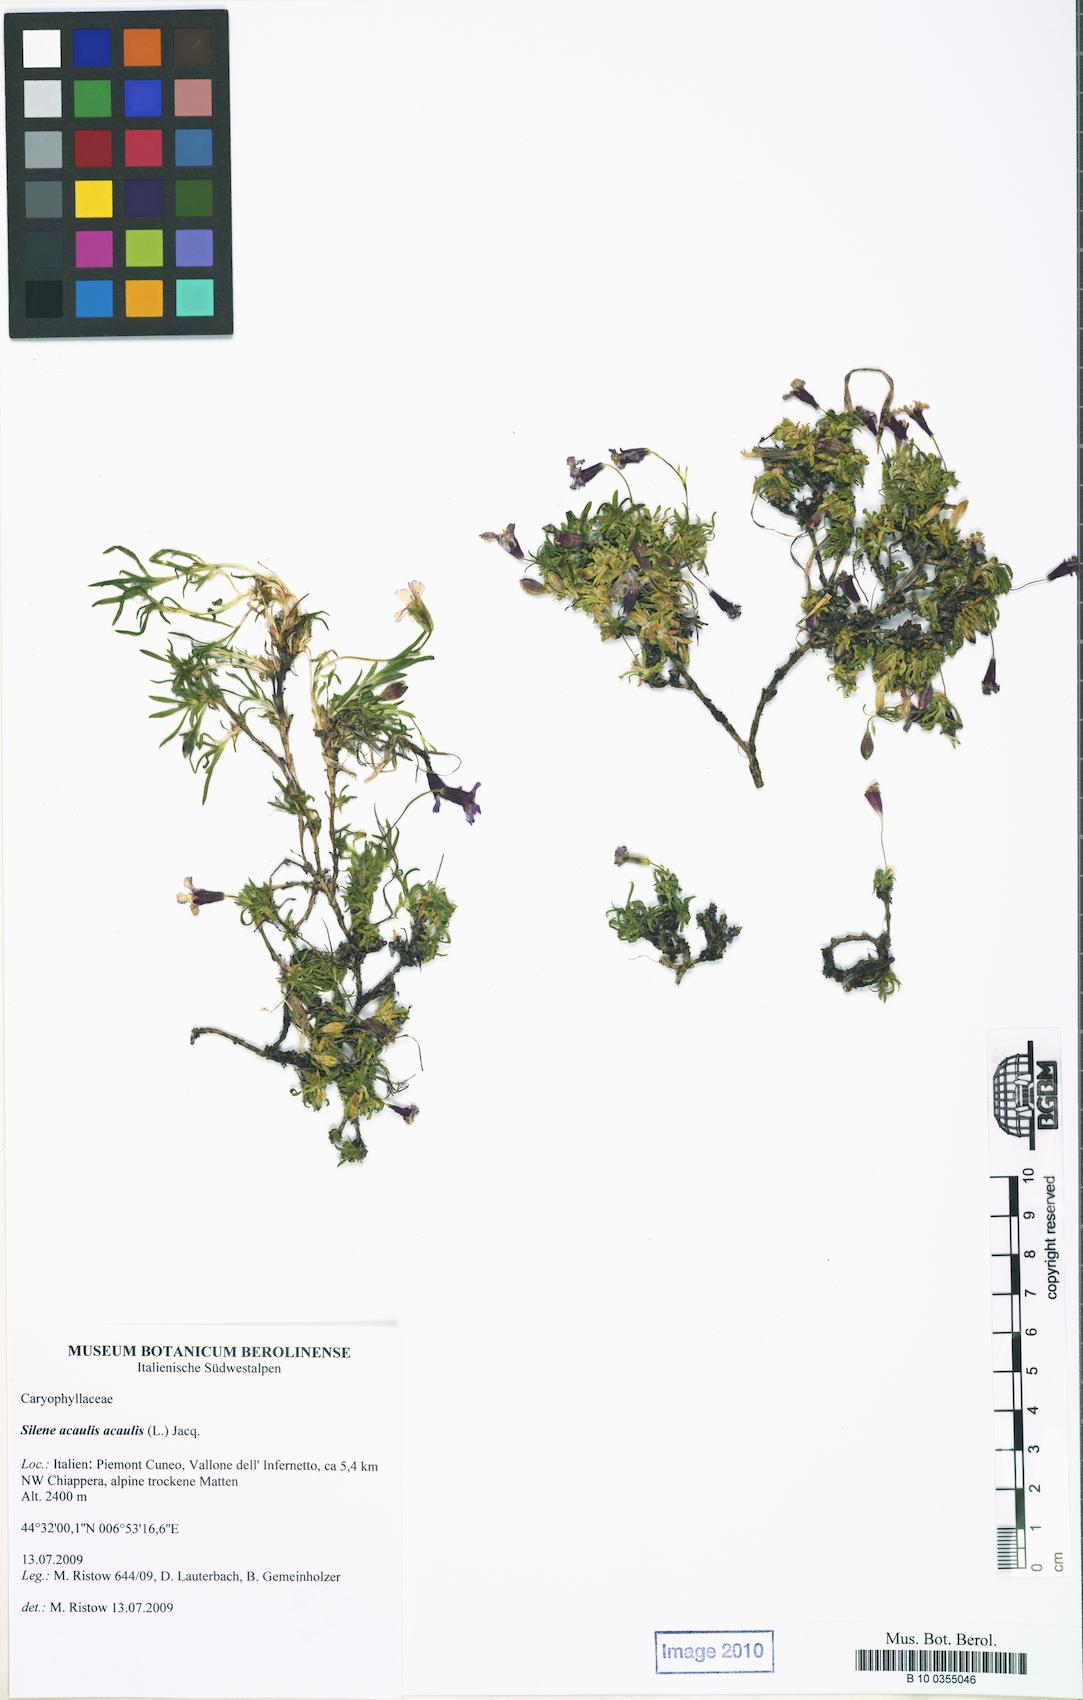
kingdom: Plantae
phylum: Tracheophyta
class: Magnoliopsida
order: Caryophyllales
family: Caryophyllaceae
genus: Silene
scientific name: Silene acaulis
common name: Moss campion
